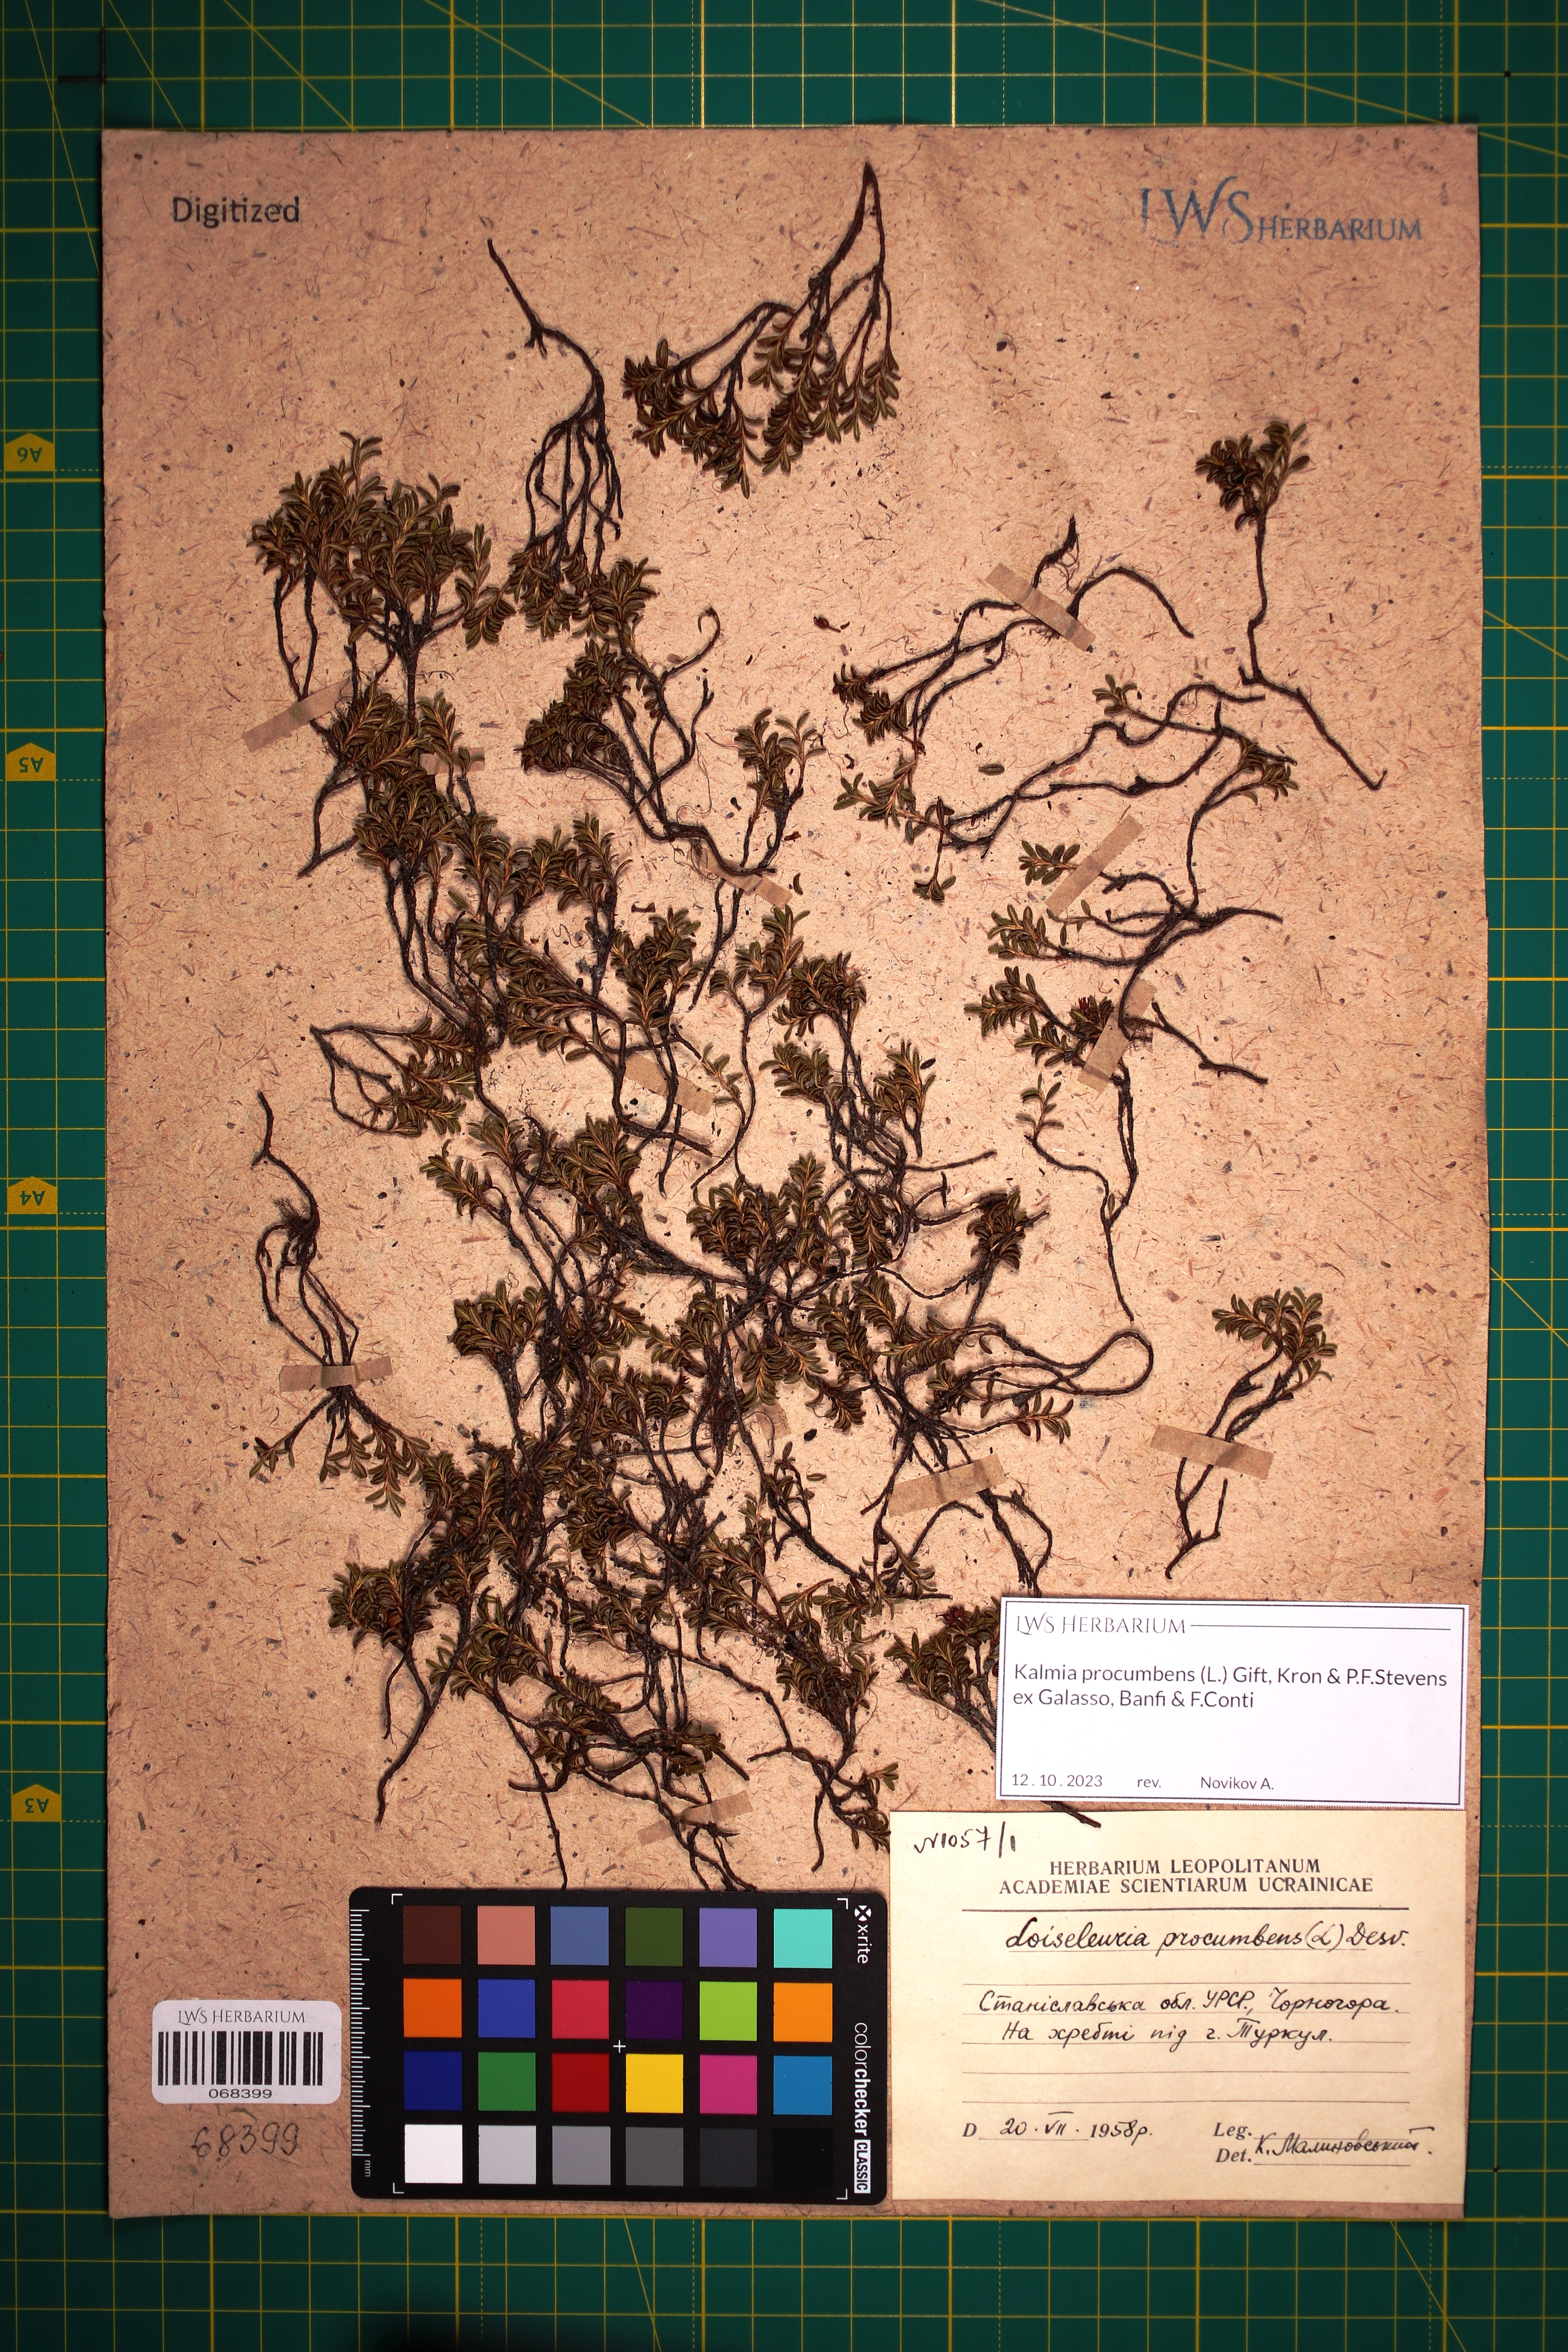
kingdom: Plantae
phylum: Tracheophyta
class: Magnoliopsida
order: Ericales
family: Ericaceae
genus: Kalmia
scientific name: Kalmia procumbens
